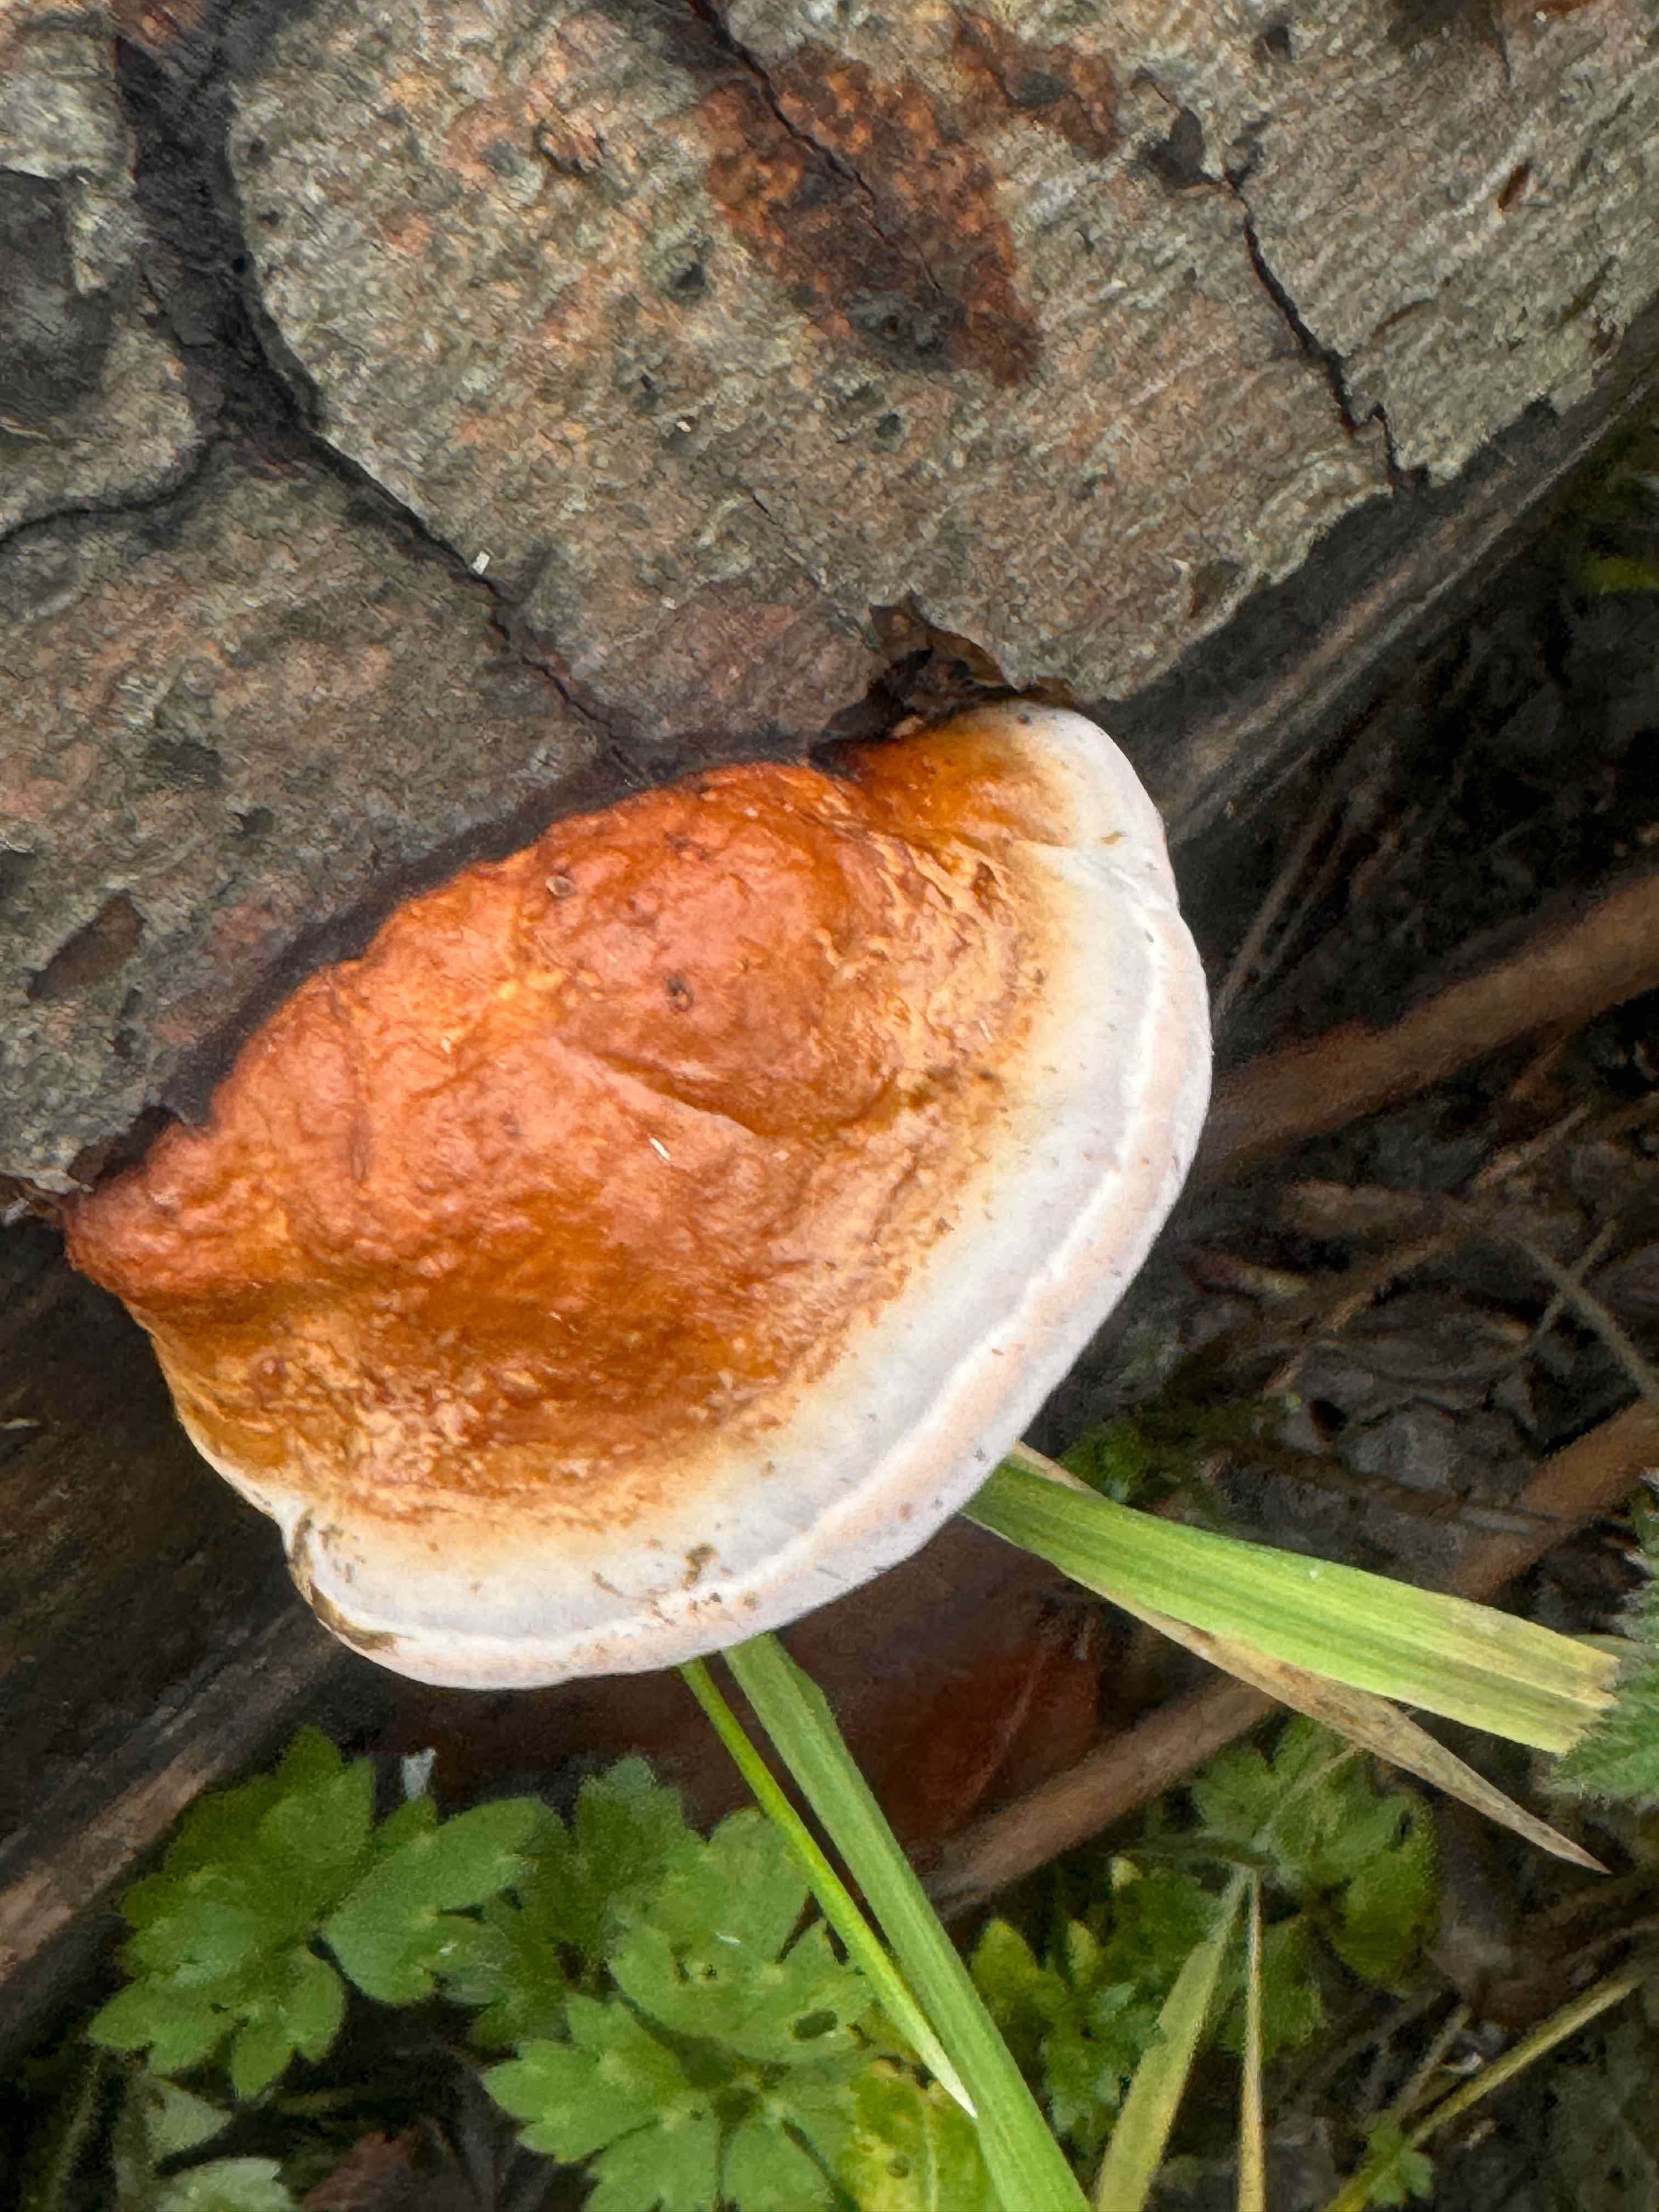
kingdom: Fungi
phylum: Basidiomycota
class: Agaricomycetes
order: Polyporales
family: Fomitopsidaceae
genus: Fomitopsis
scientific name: Fomitopsis pinicola
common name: randbæltet hovporesvamp
